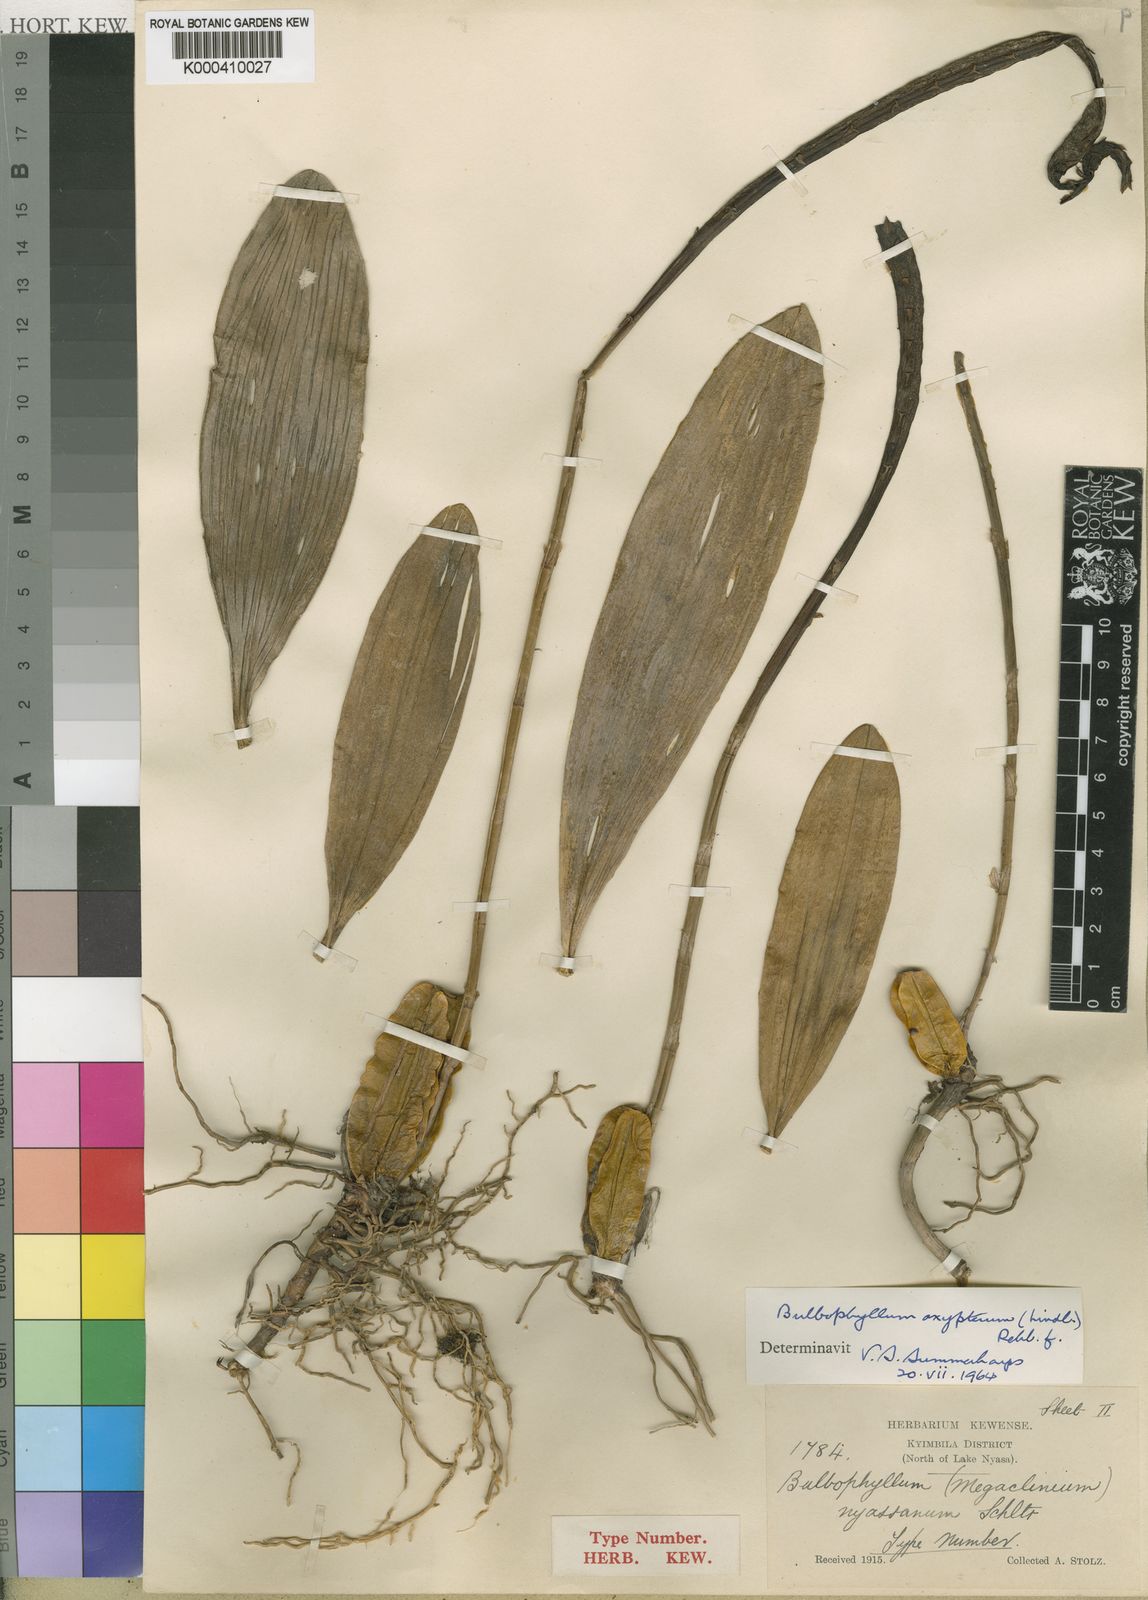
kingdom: Plantae
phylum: Tracheophyta
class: Liliopsida
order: Asparagales
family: Orchidaceae
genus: Bulbophyllum
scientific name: Bulbophyllum maximum
